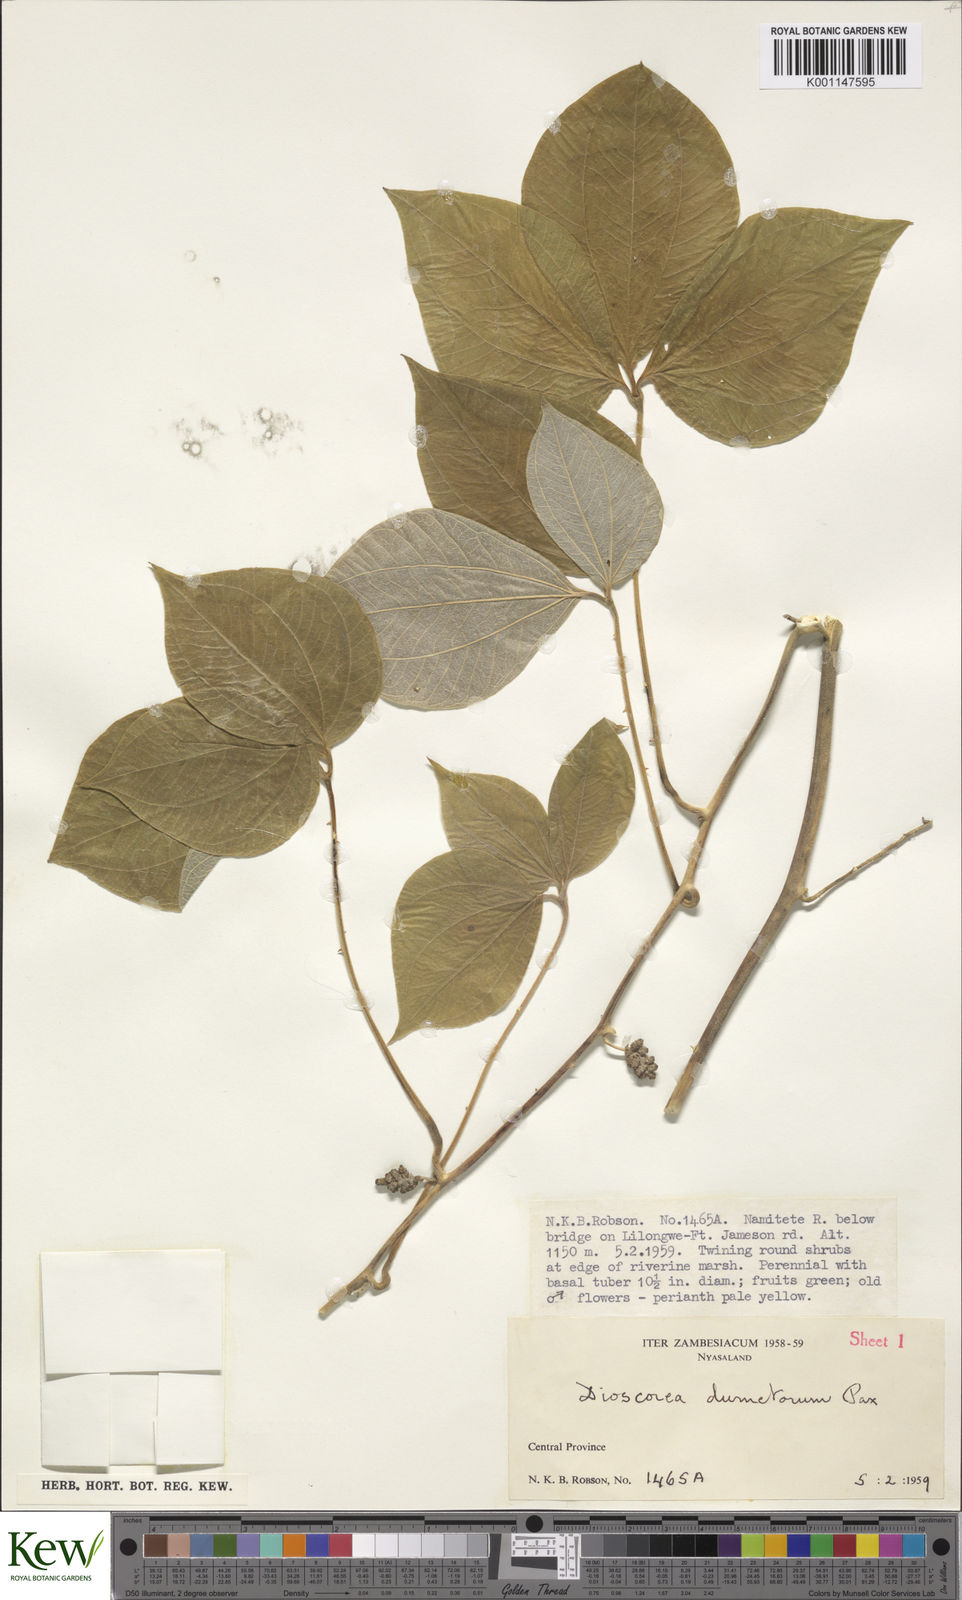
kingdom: Plantae
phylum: Tracheophyta
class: Liliopsida
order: Dioscoreales
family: Dioscoreaceae
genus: Dioscorea
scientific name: Dioscorea dumetorum
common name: African bitter yam
